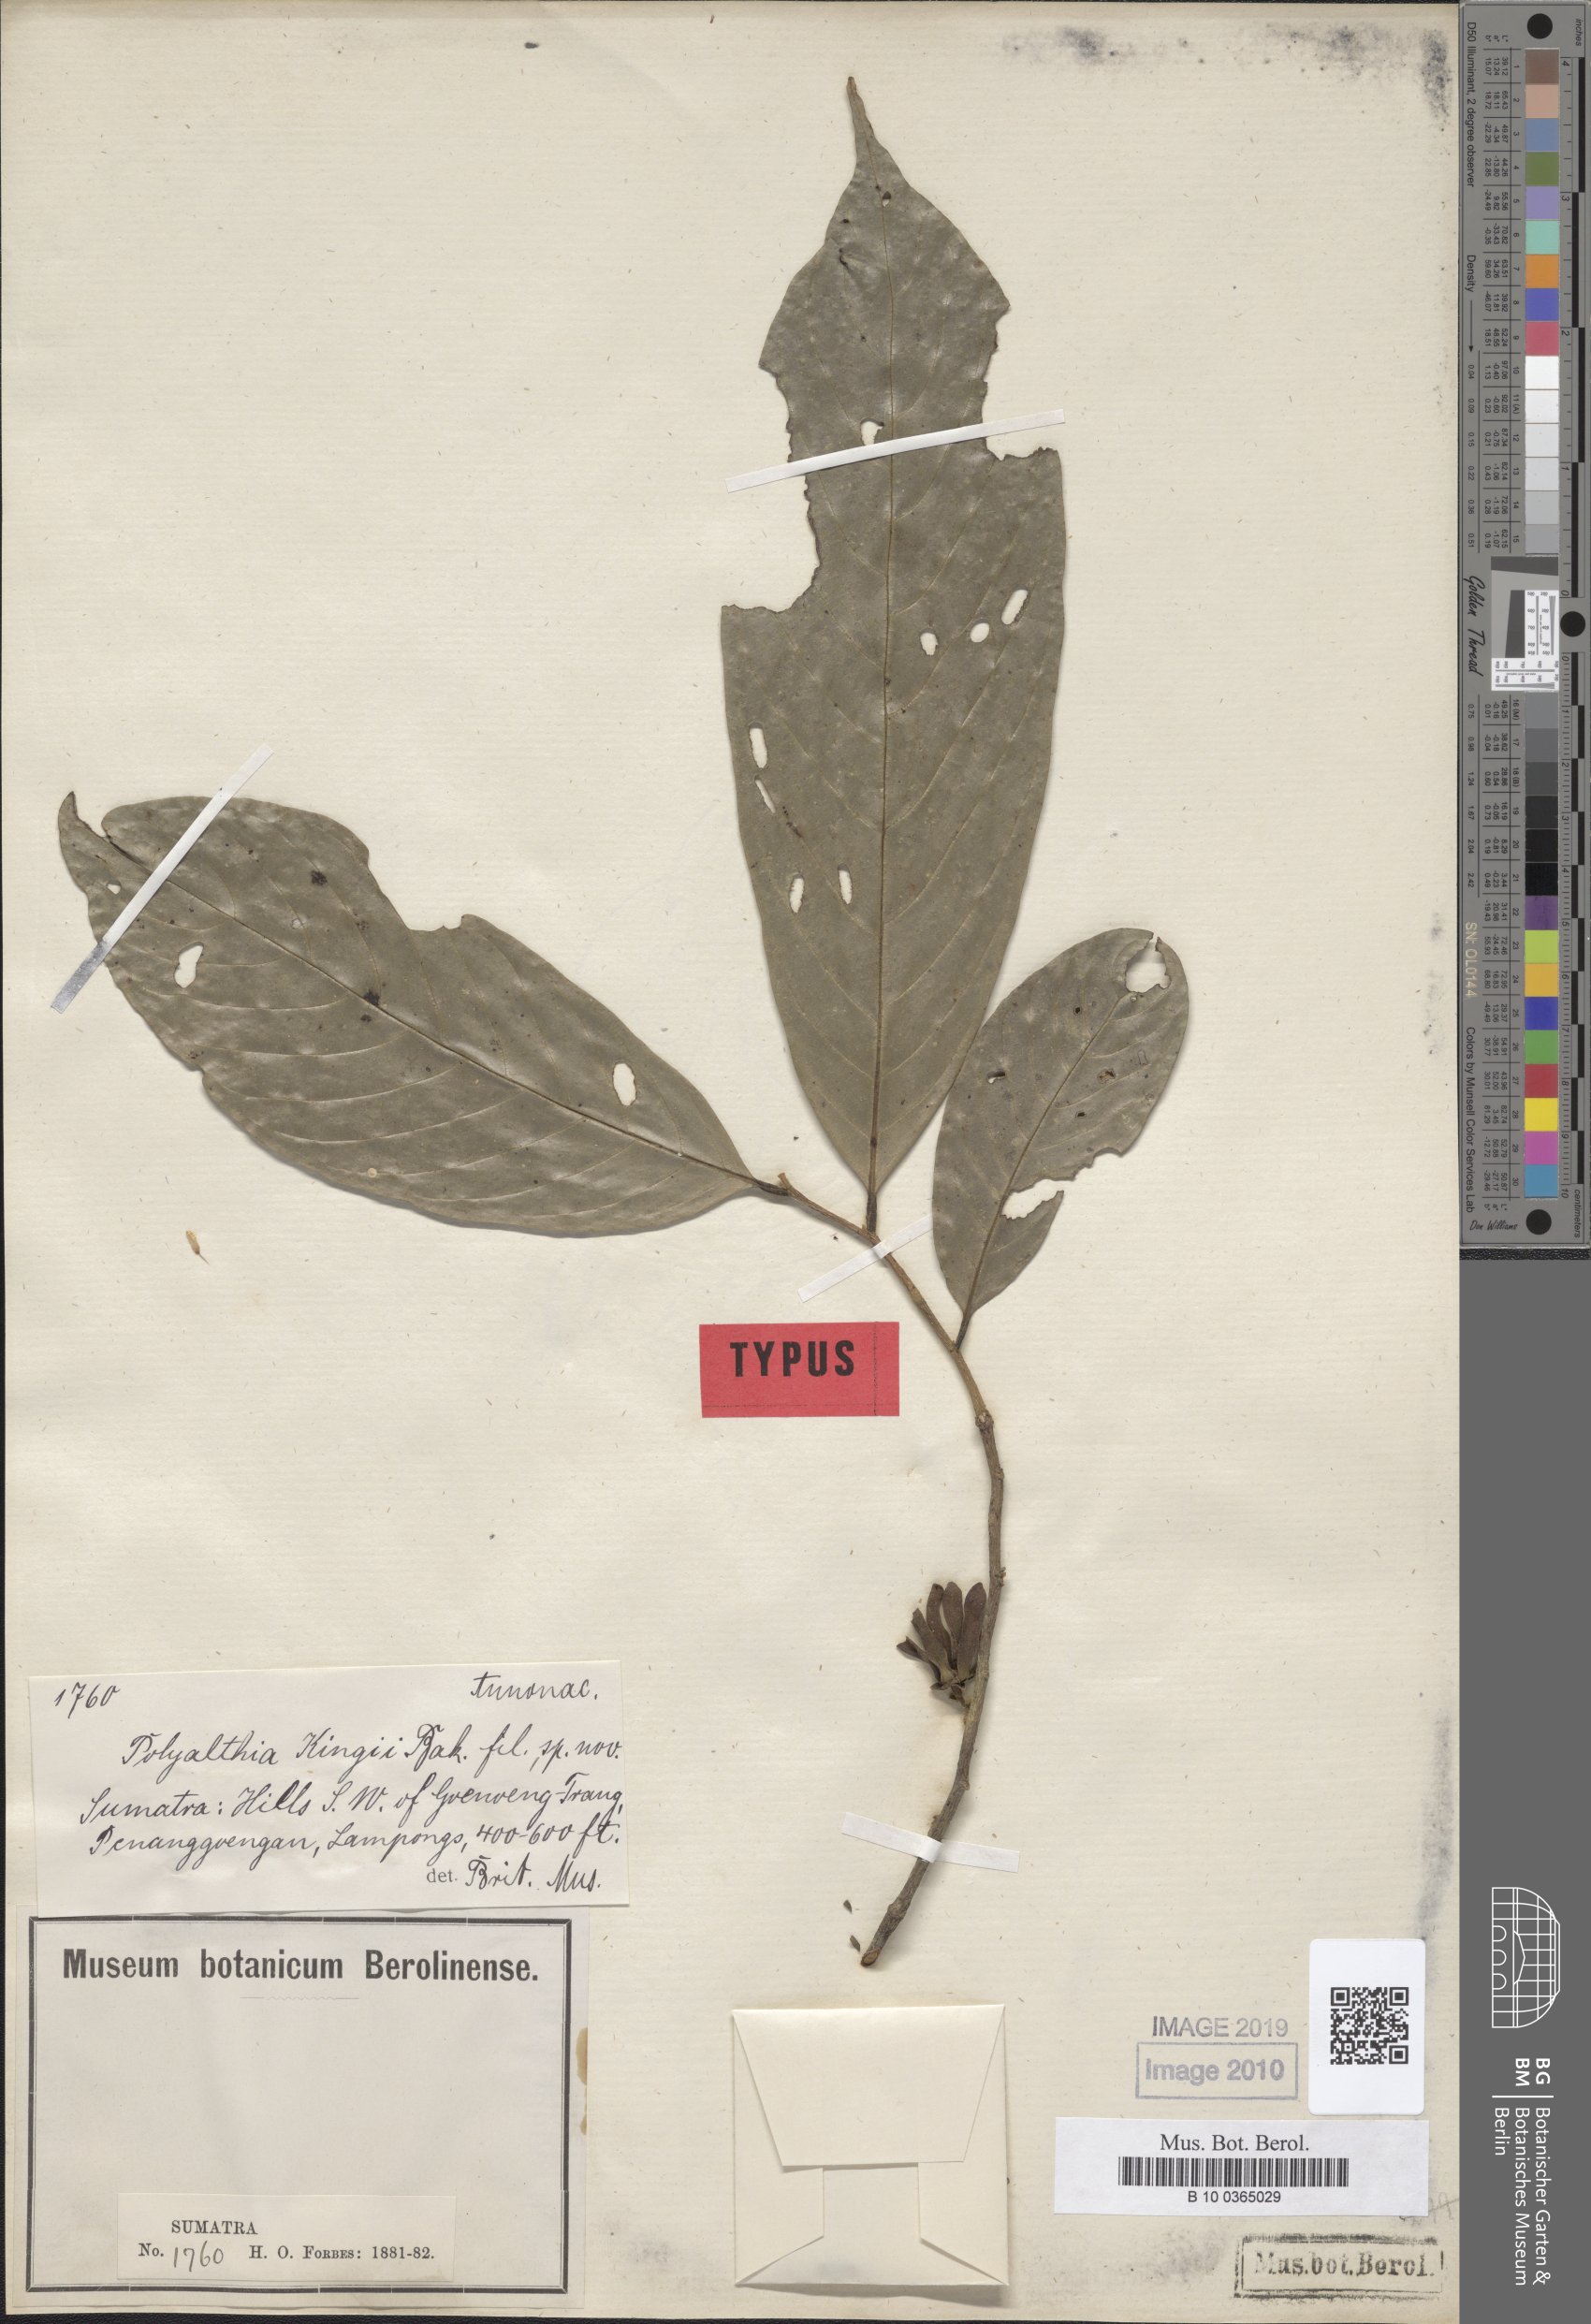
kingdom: Plantae
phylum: Tracheophyta
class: Magnoliopsida
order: Magnoliales
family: Annonaceae
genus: Polyalthia
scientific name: Polyalthia kingii
